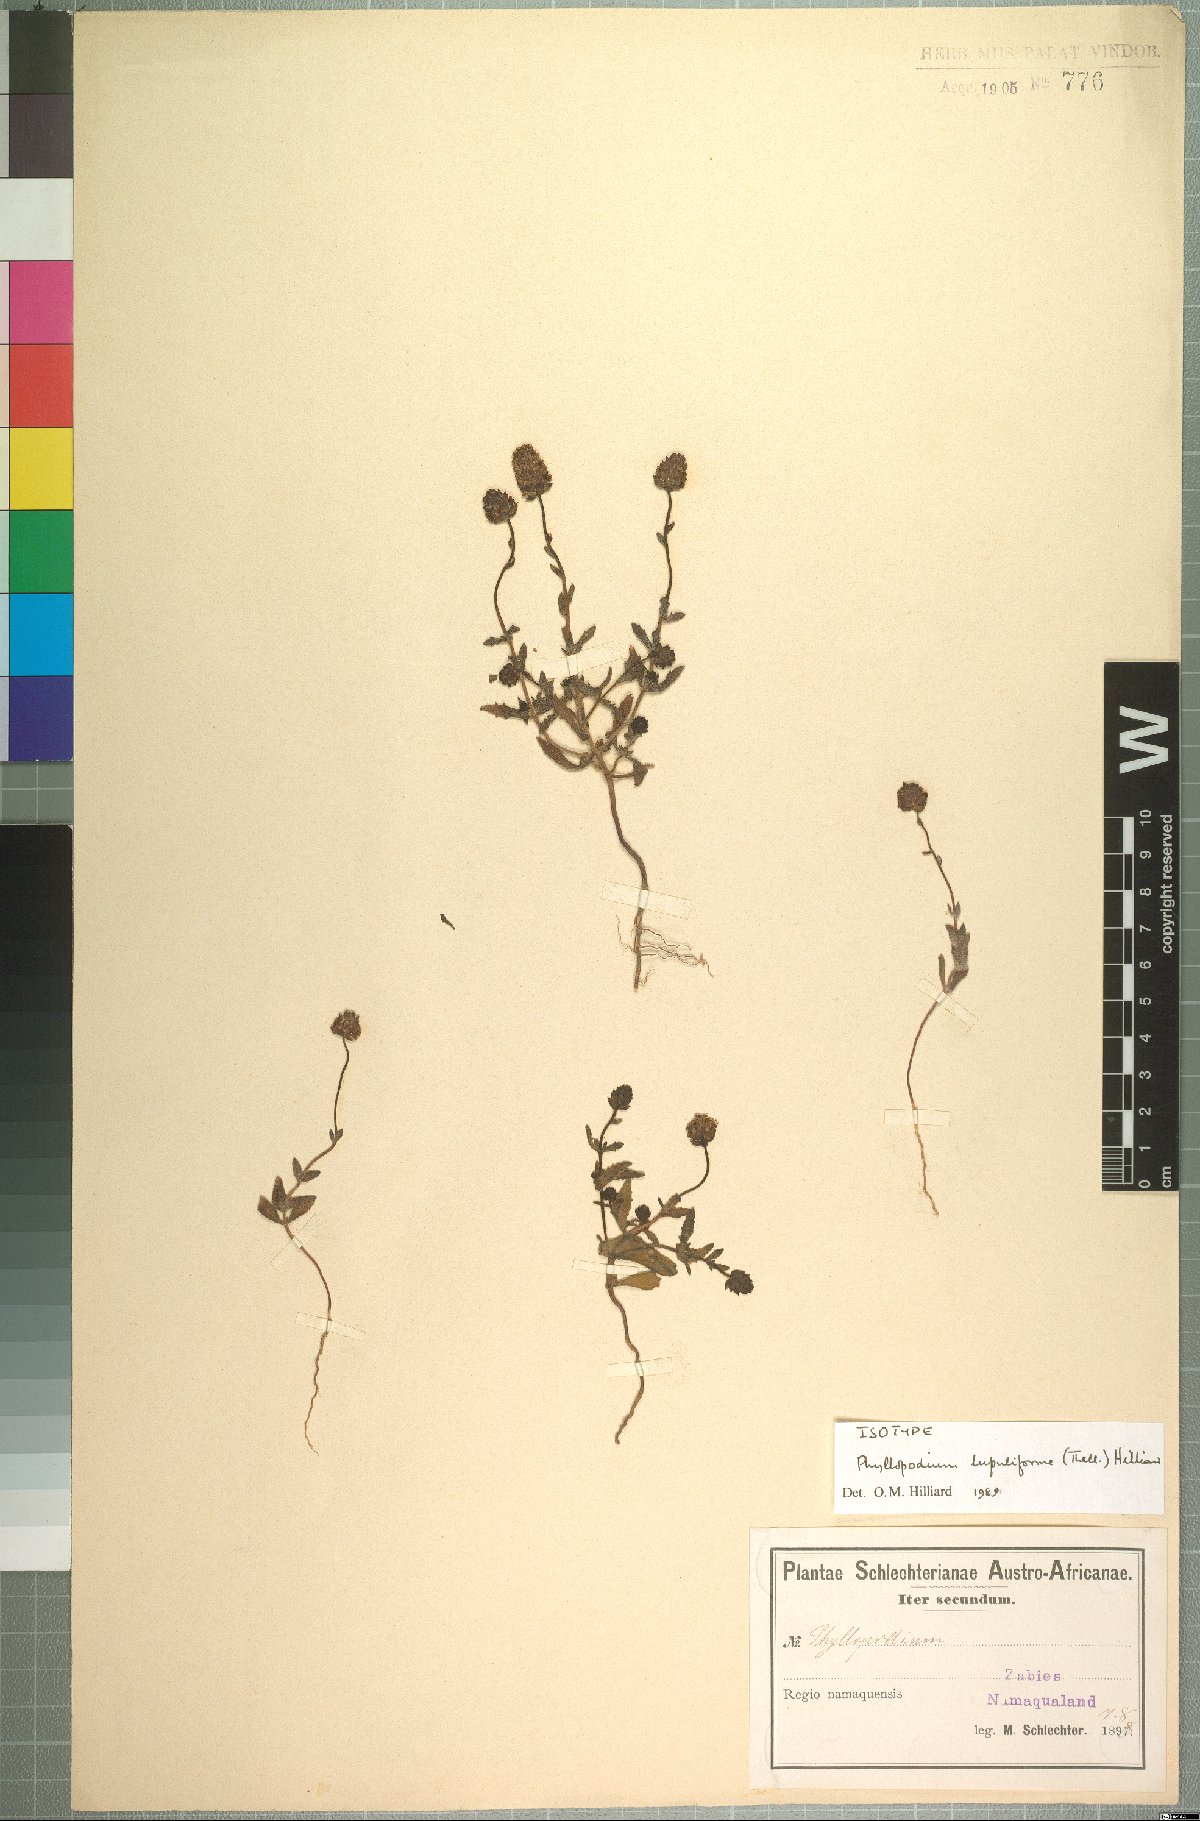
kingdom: Plantae
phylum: Tracheophyta
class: Magnoliopsida
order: Lamiales
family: Scrophulariaceae
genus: Phyllopodium
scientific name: Phyllopodium lupuliforme
